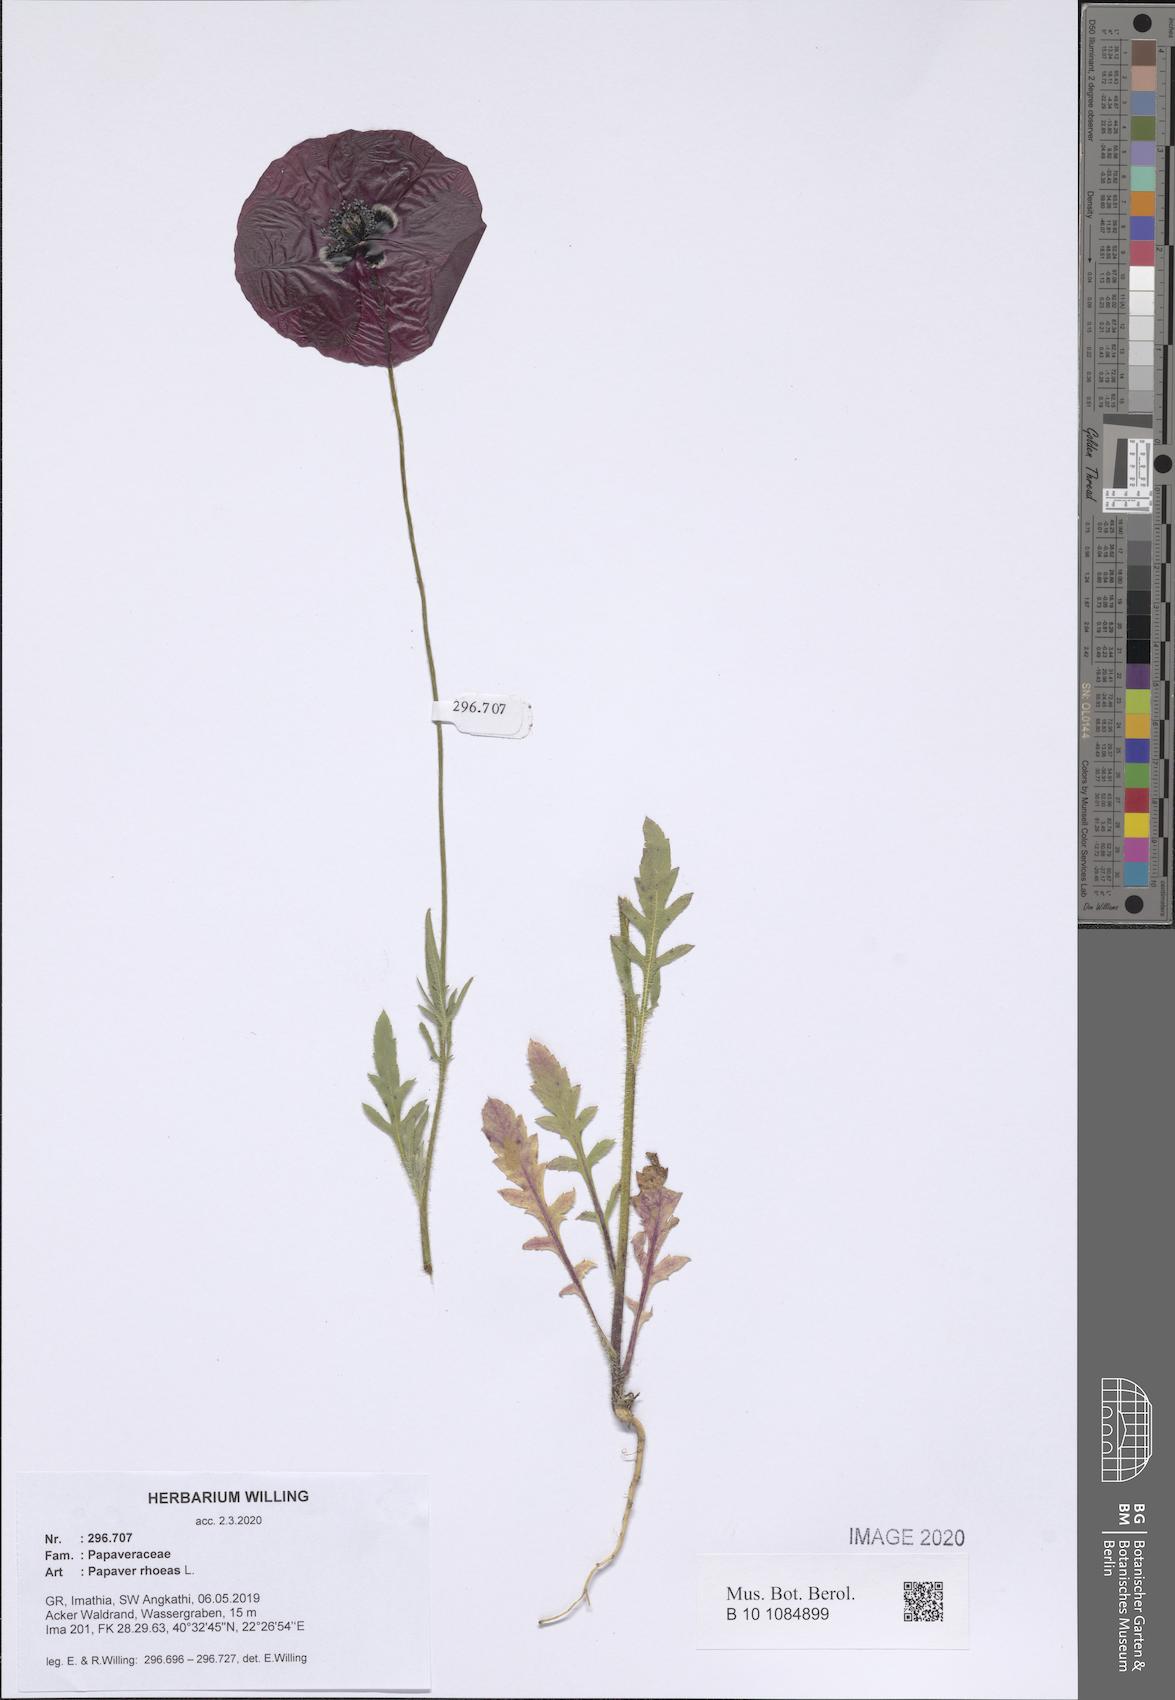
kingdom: Plantae
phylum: Tracheophyta
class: Magnoliopsida
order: Ranunculales
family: Papaveraceae
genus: Papaver
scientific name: Papaver rhoeas
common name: Corn poppy
